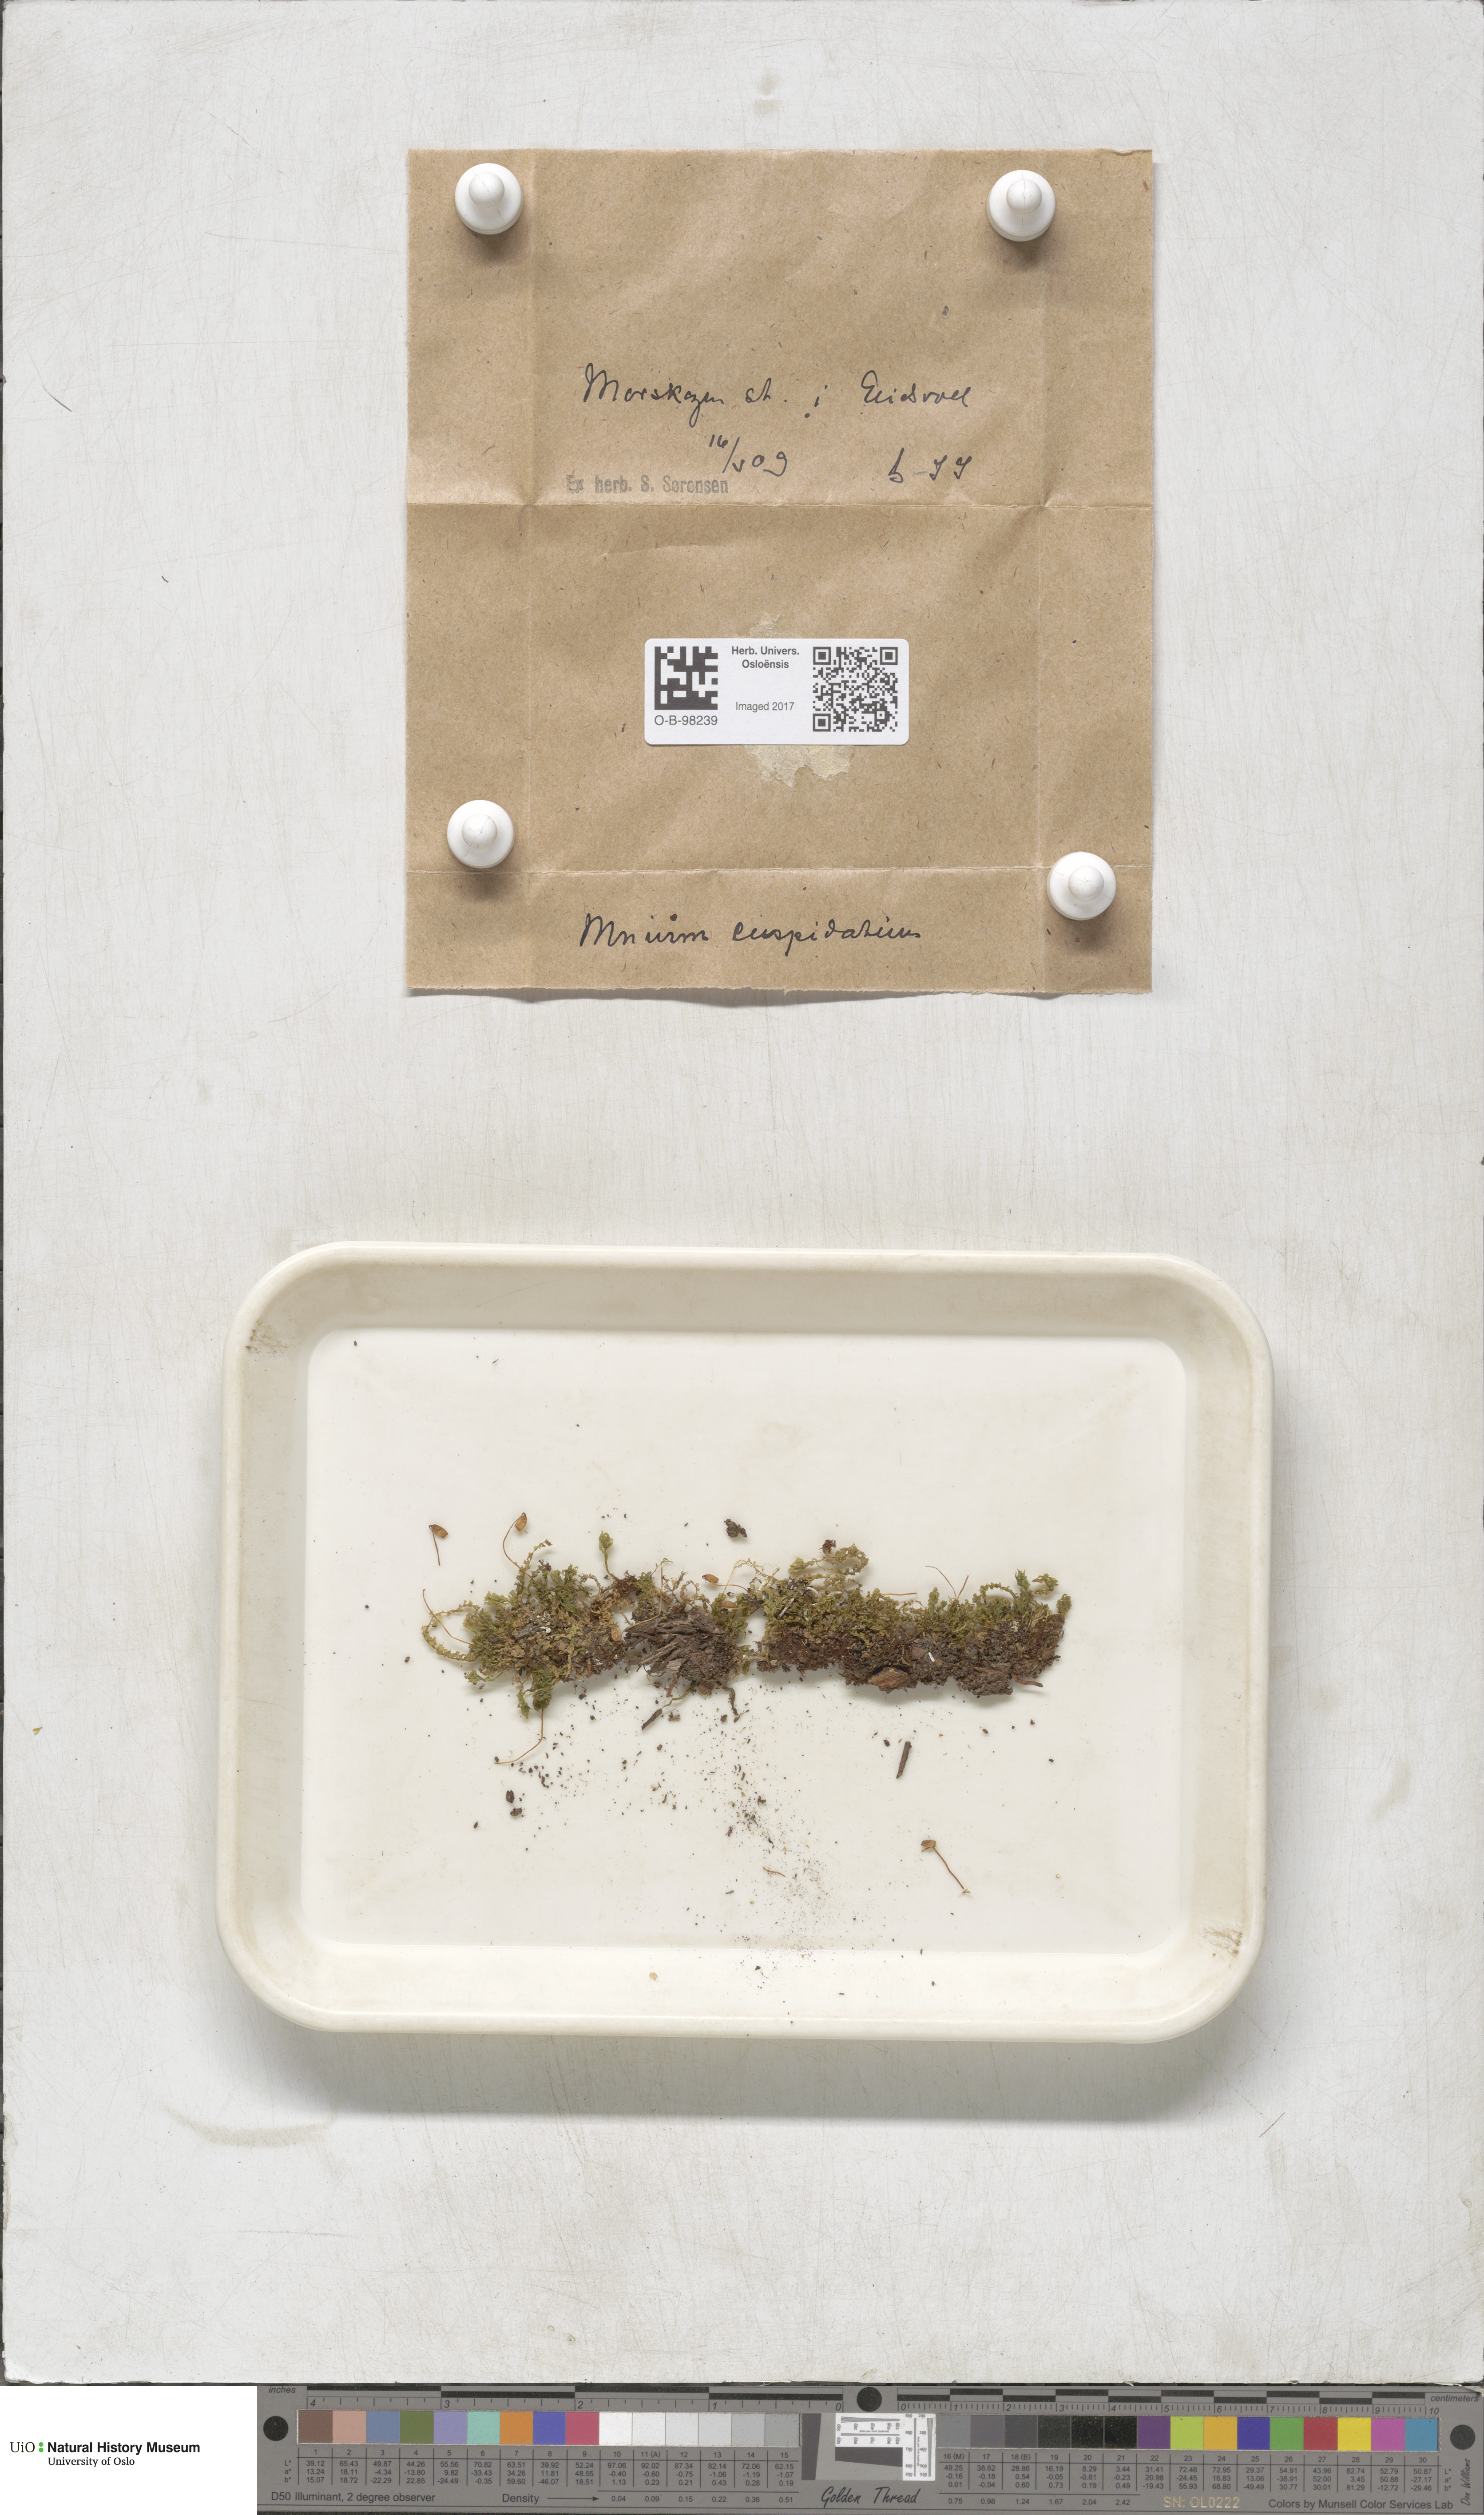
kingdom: Plantae
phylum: Bryophyta
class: Bryopsida
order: Bryales
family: Mniaceae
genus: Plagiomnium
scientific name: Plagiomnium cuspidatum
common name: Woodsy leafy moss
